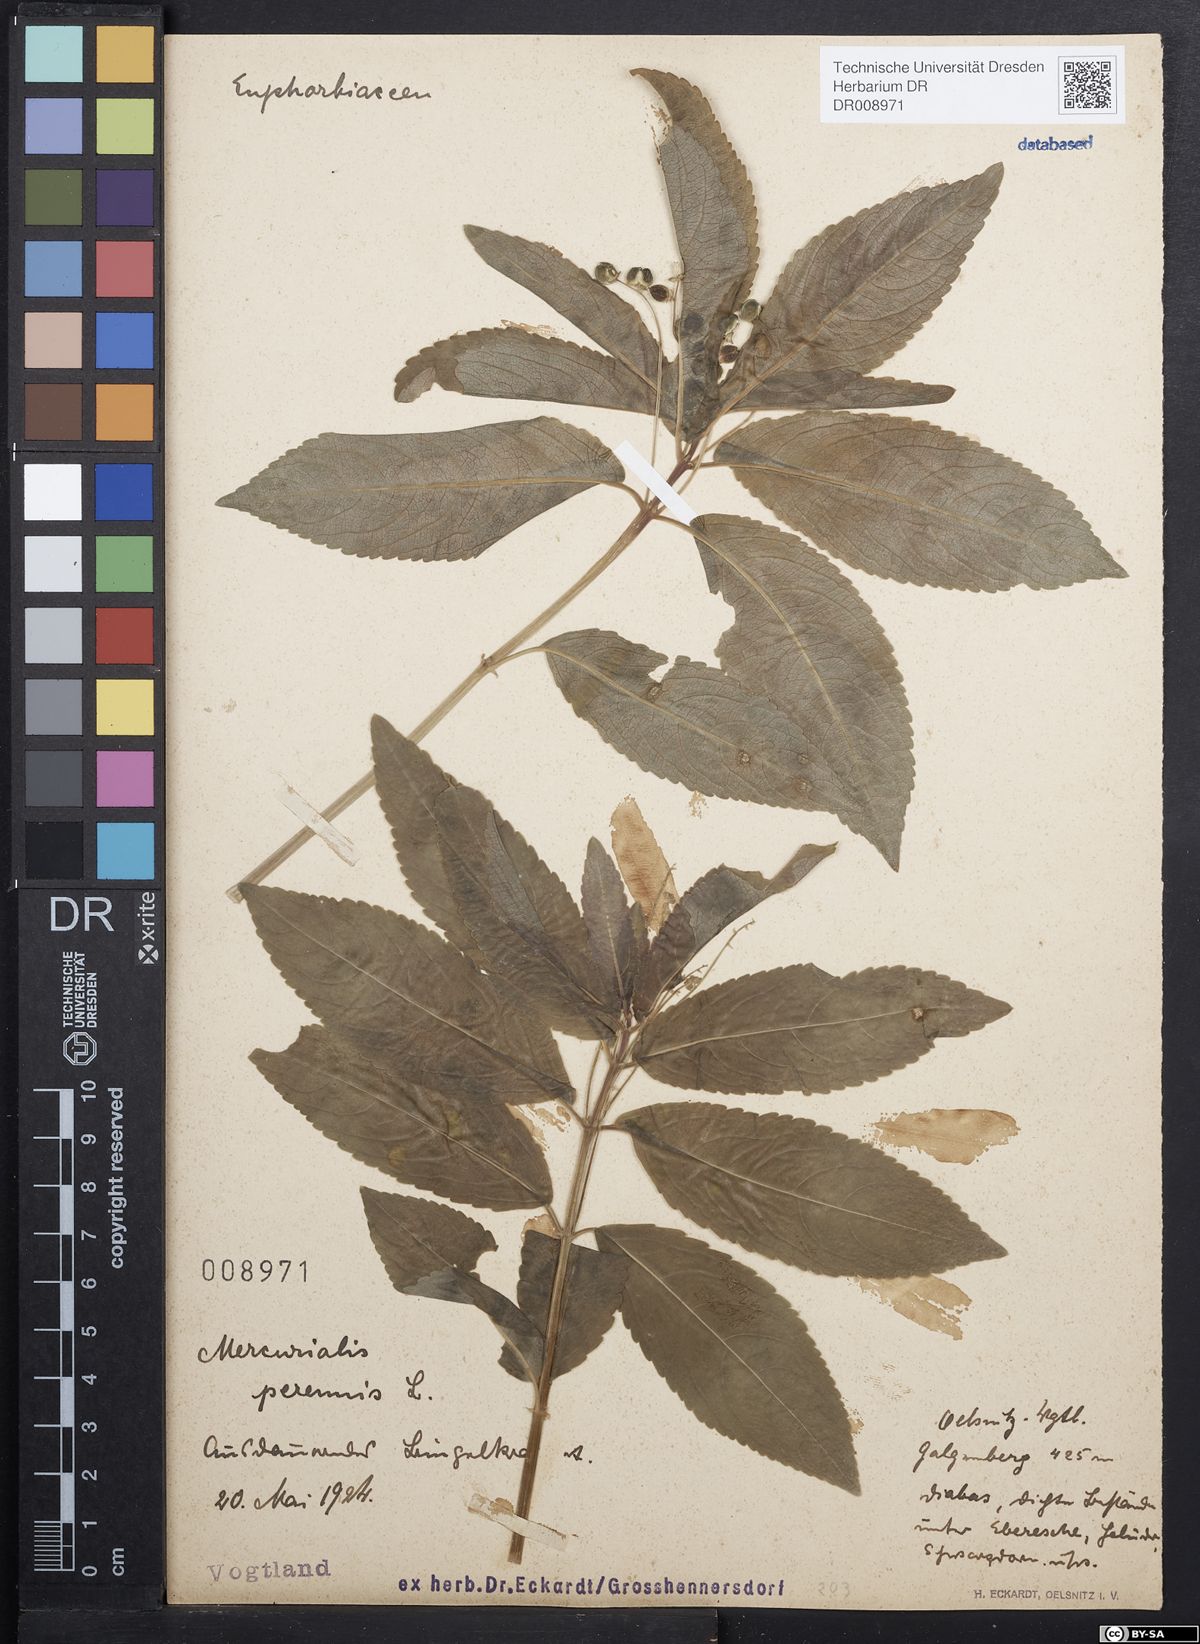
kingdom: Plantae
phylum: Tracheophyta
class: Magnoliopsida
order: Malpighiales
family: Euphorbiaceae
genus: Mercurialis
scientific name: Mercurialis perennis
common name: Dog mercury
